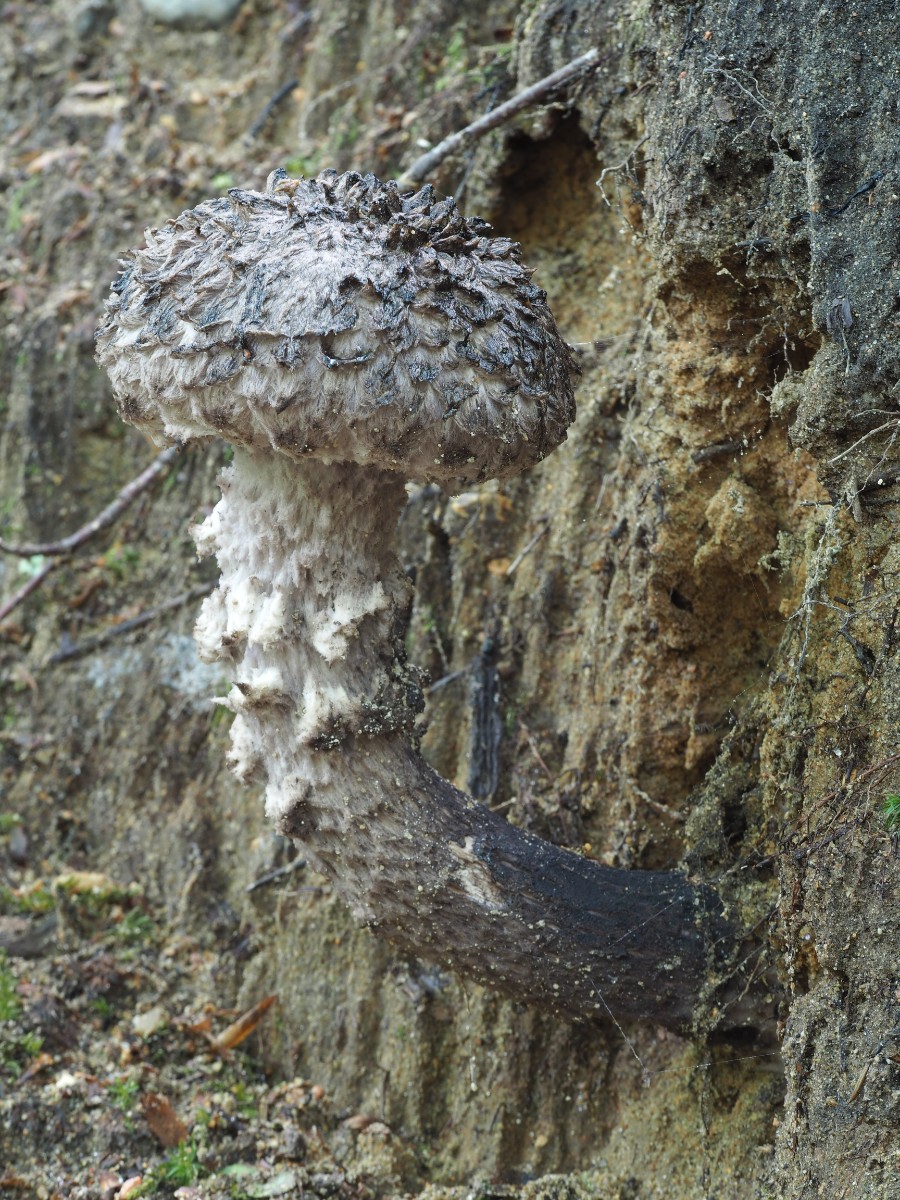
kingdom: Fungi
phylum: Basidiomycota
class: Agaricomycetes
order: Boletales
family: Boletaceae
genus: Strobilomyces
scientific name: Strobilomyces strobilaceus
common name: koglerørhat
